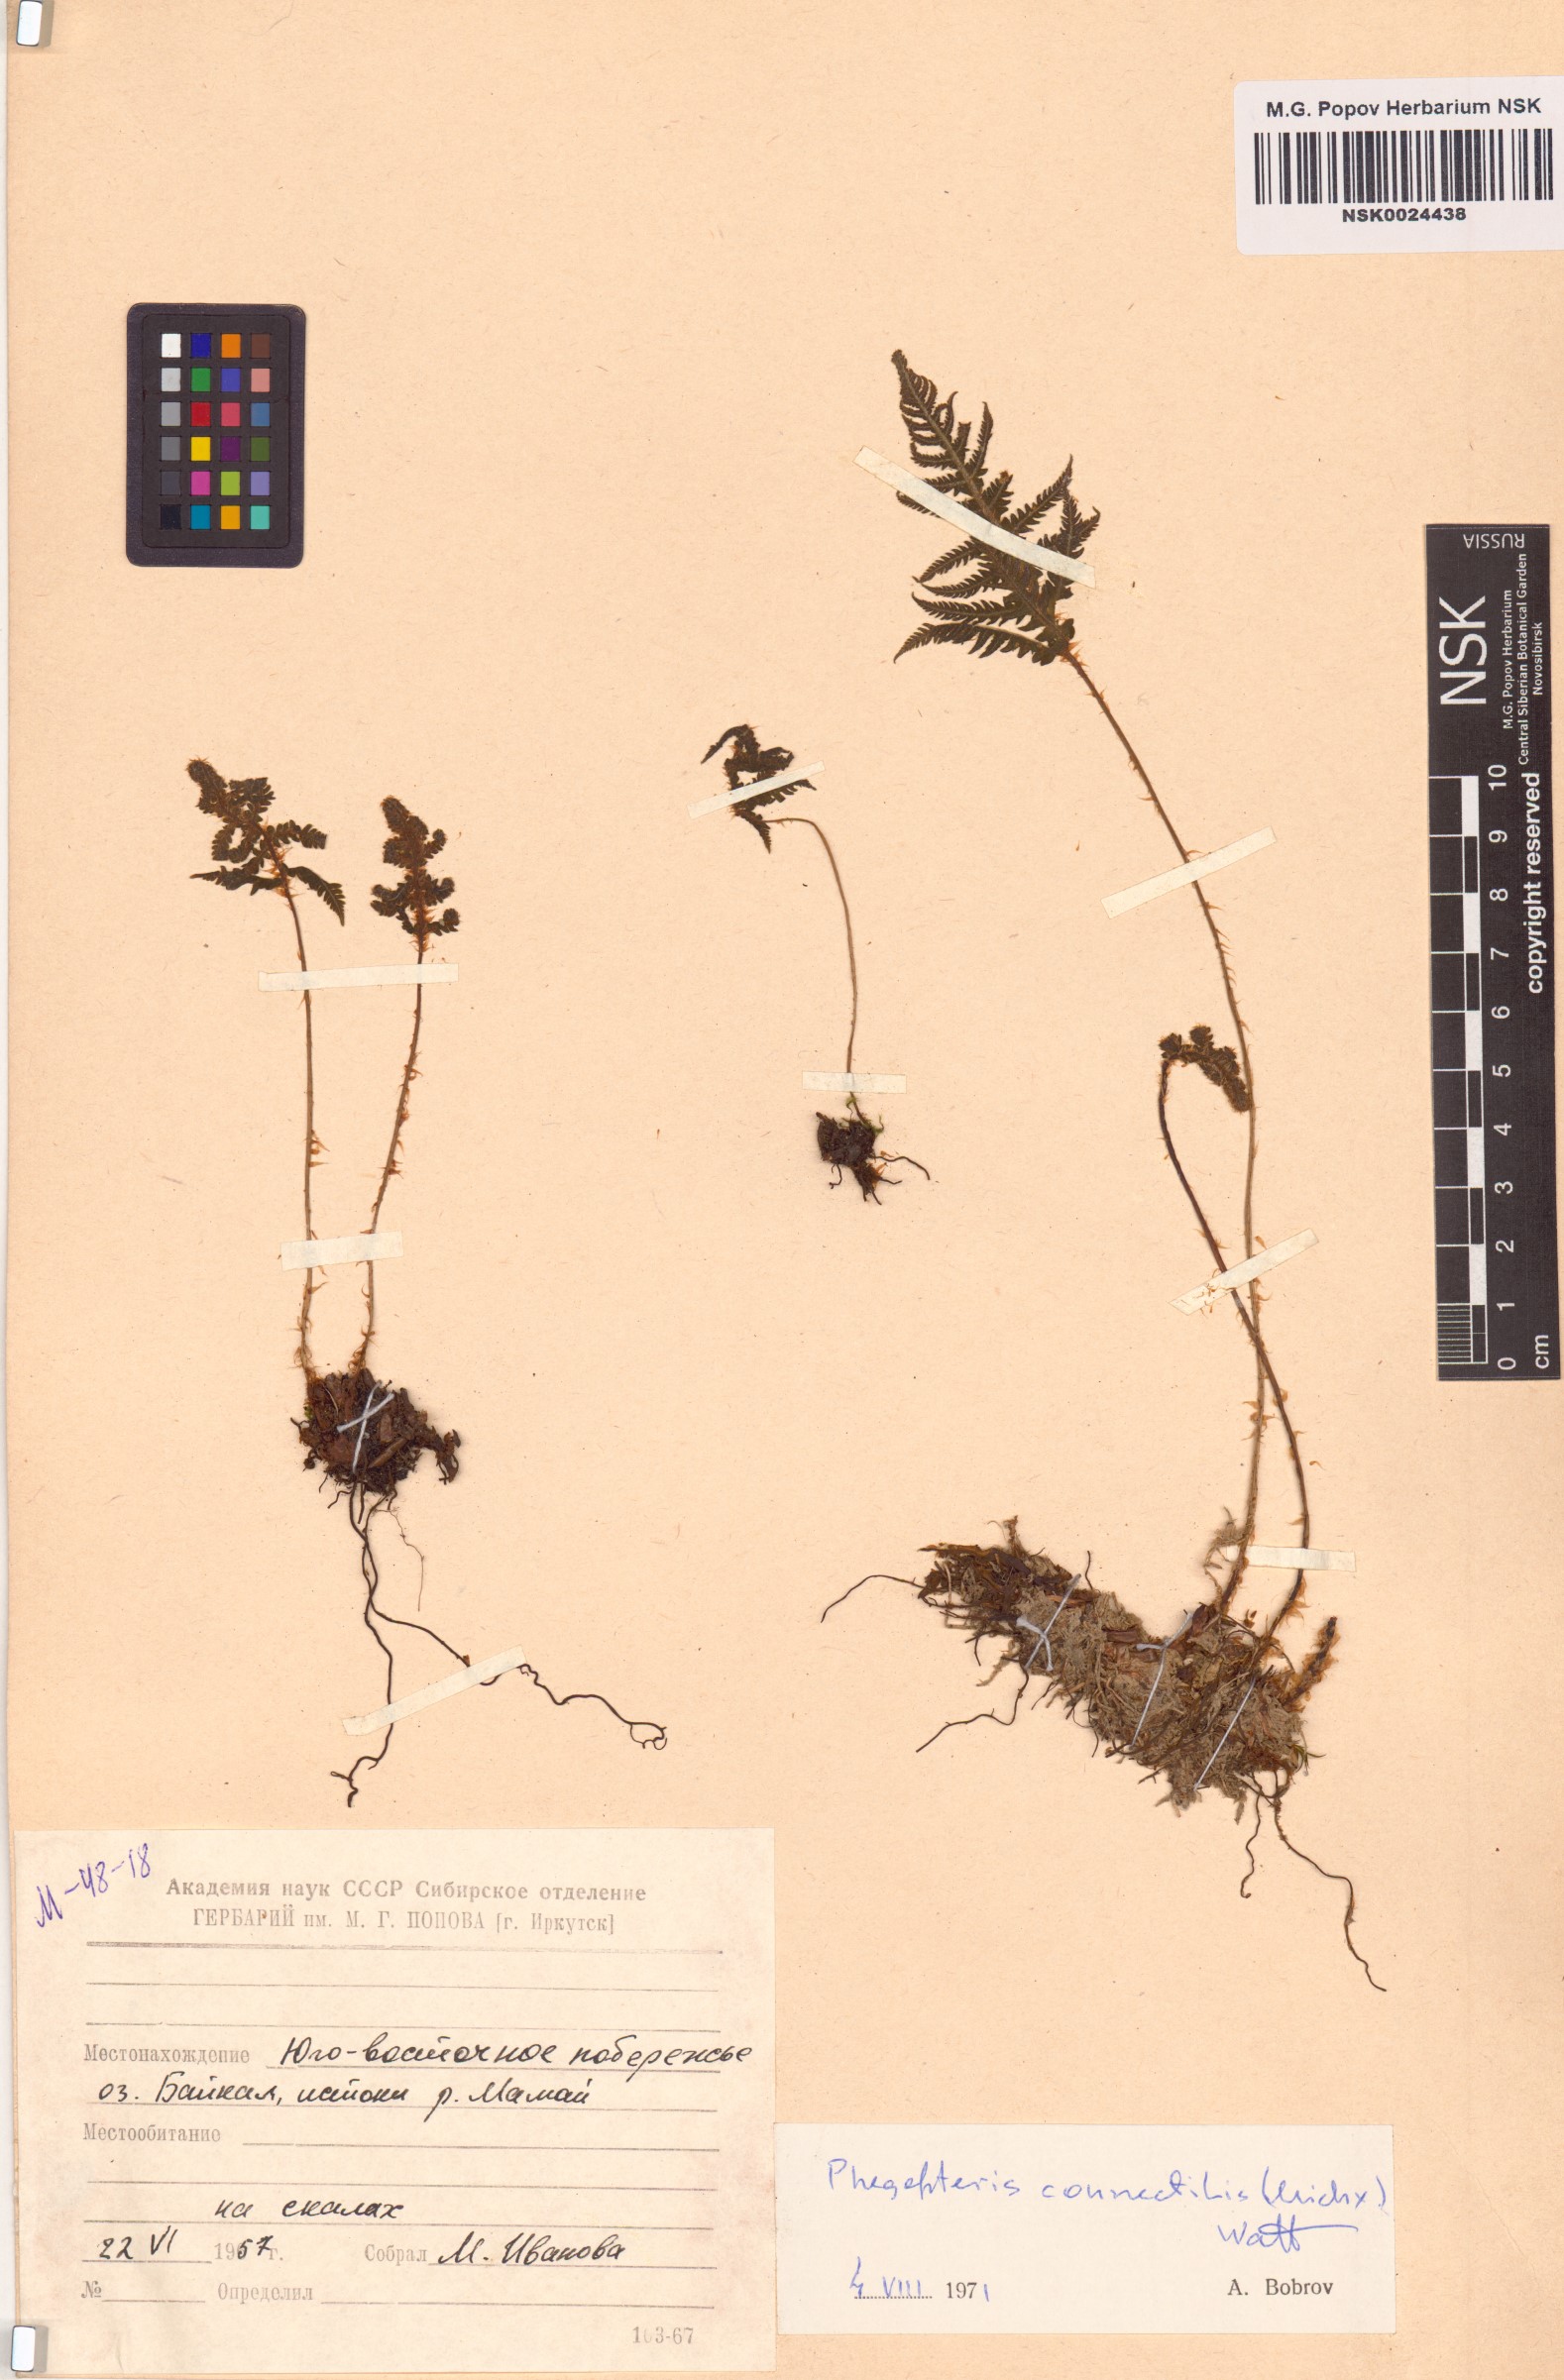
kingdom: Plantae
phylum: Tracheophyta
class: Polypodiopsida
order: Polypodiales
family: Thelypteridaceae
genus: Phegopteris
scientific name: Phegopteris connectilis
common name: Beech fern
